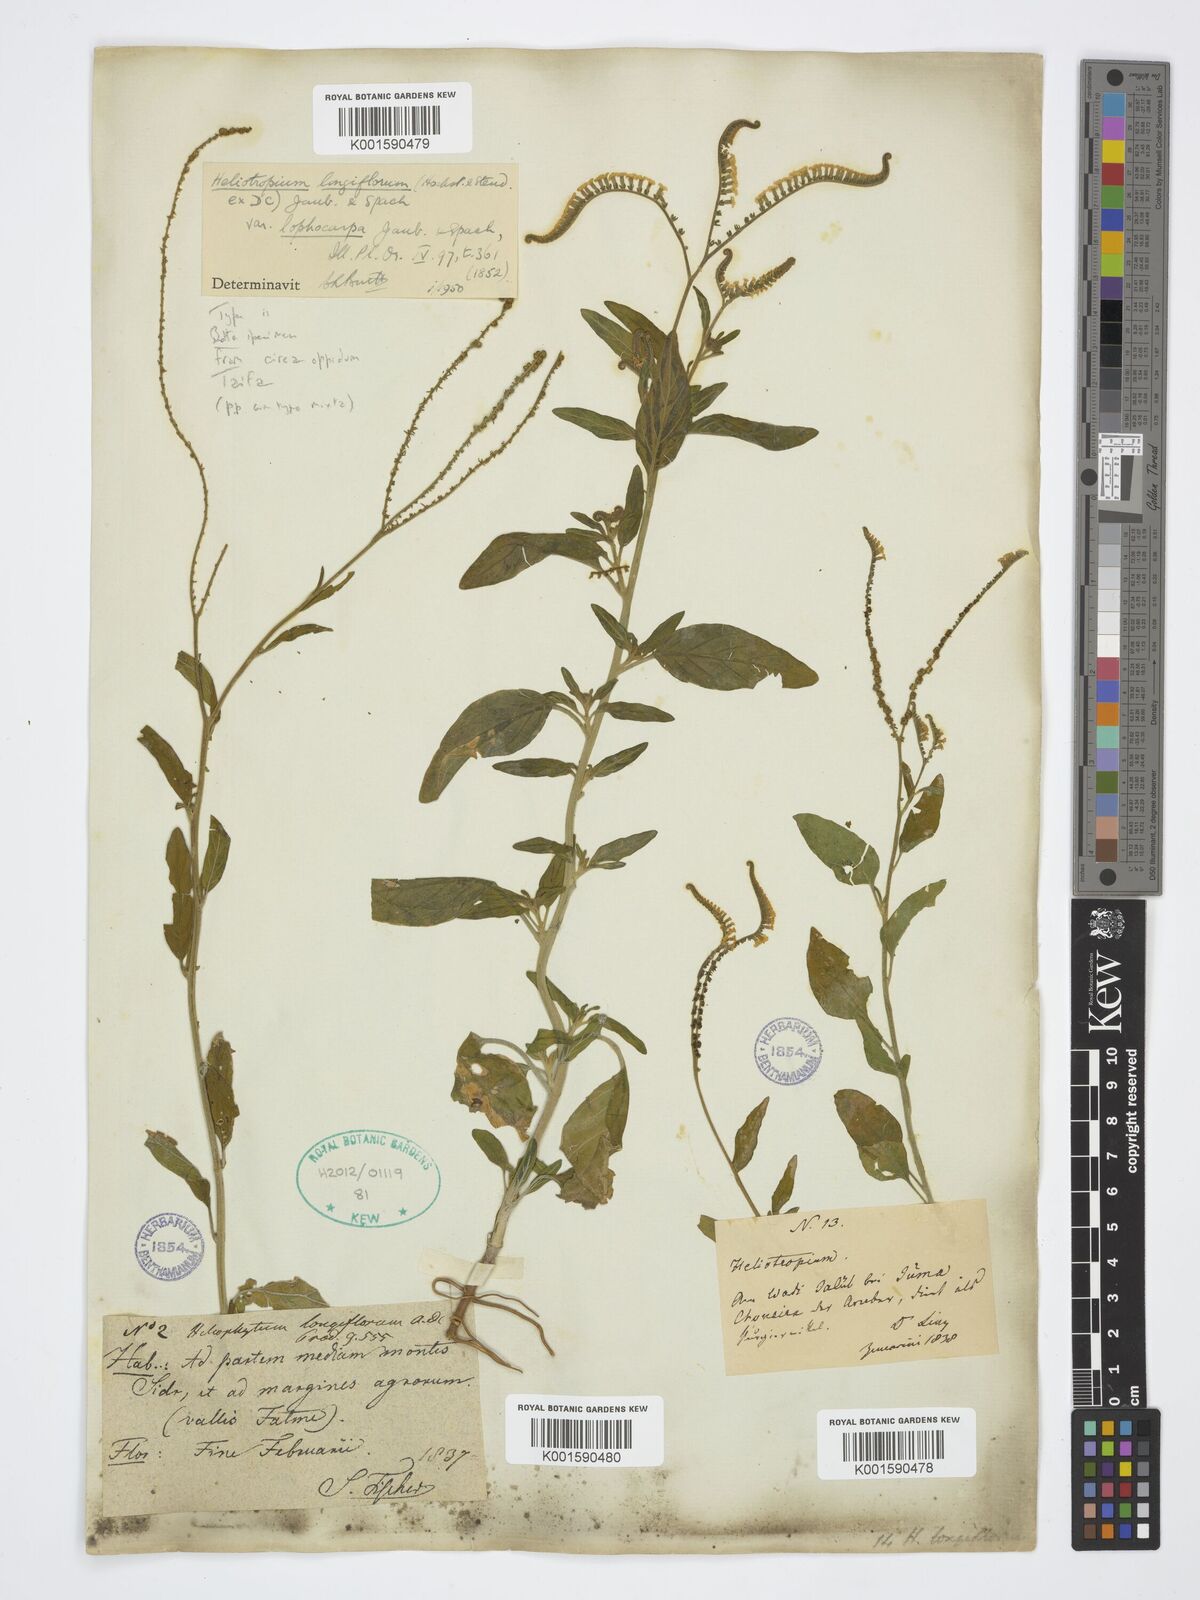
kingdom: Plantae
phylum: Tracheophyta
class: Magnoliopsida
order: Boraginales
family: Heliotropiaceae
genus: Heliotropium
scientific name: Heliotropium
